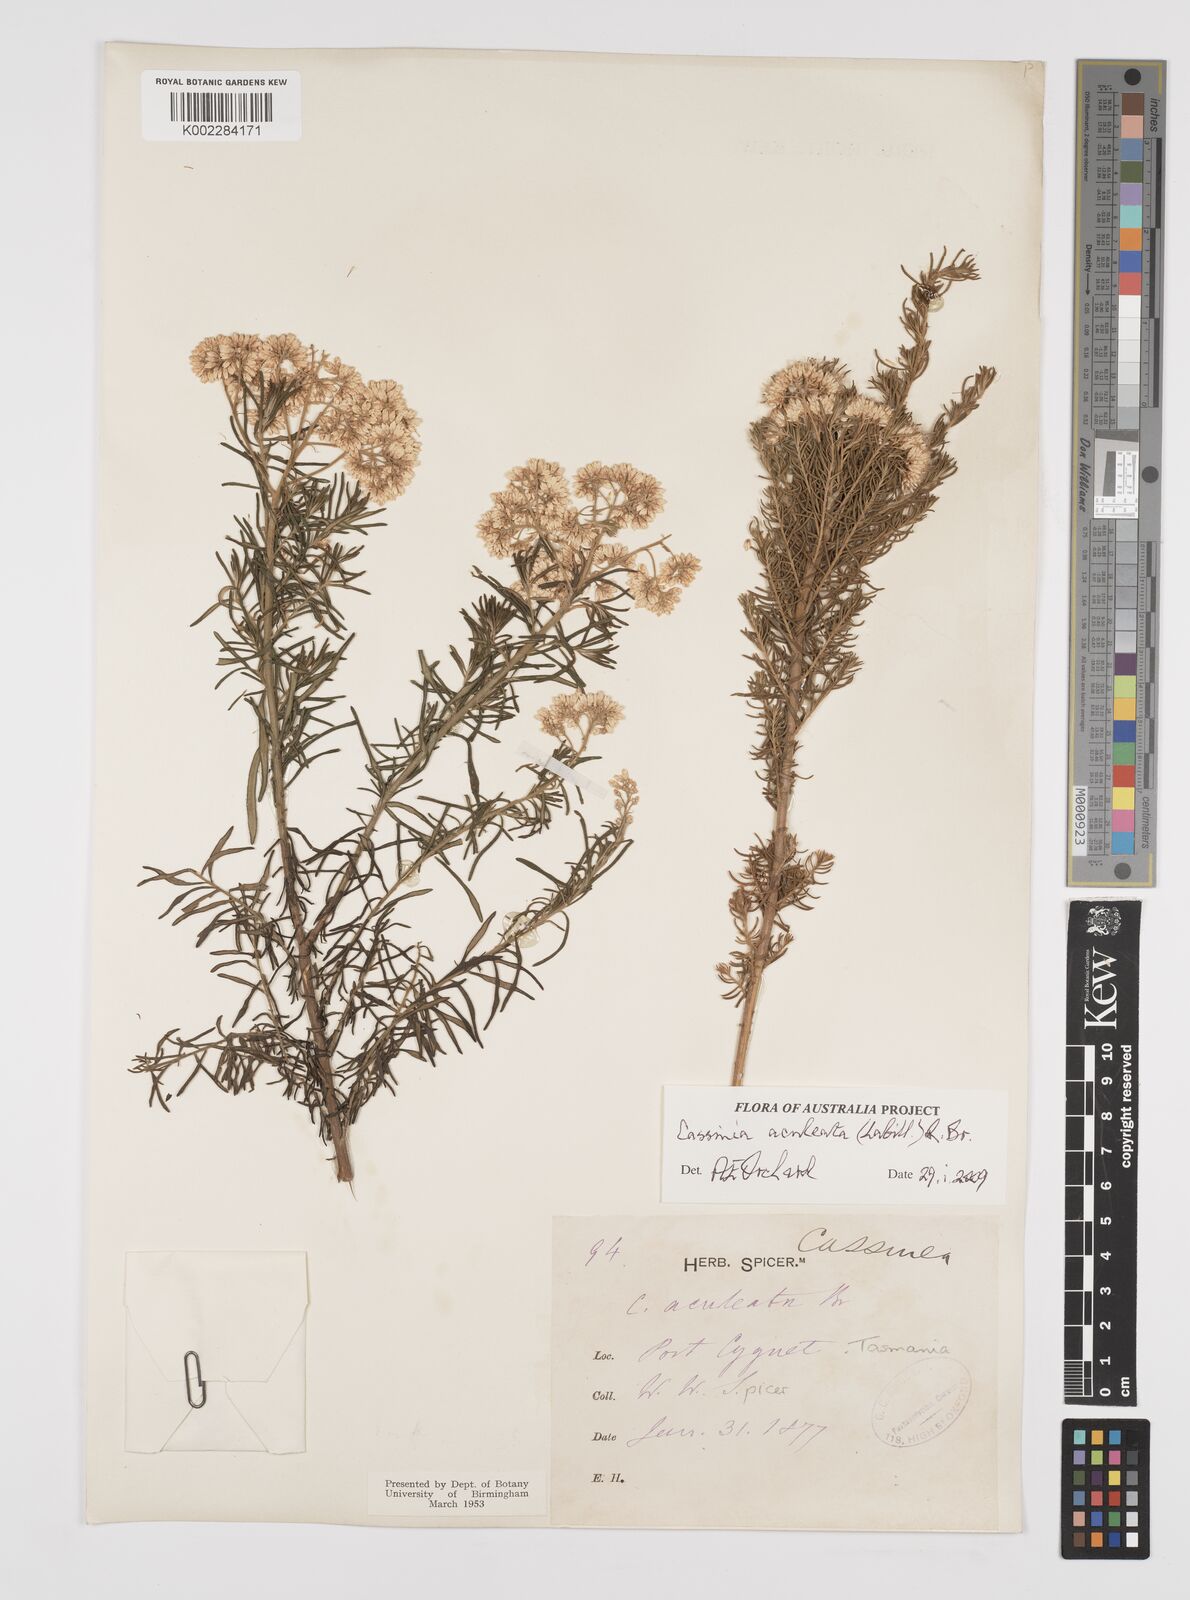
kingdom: Plantae
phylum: Tracheophyta
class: Magnoliopsida
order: Asterales
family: Asteraceae
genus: Cassinia
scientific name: Cassinia aculeata
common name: Australian tauhinu
